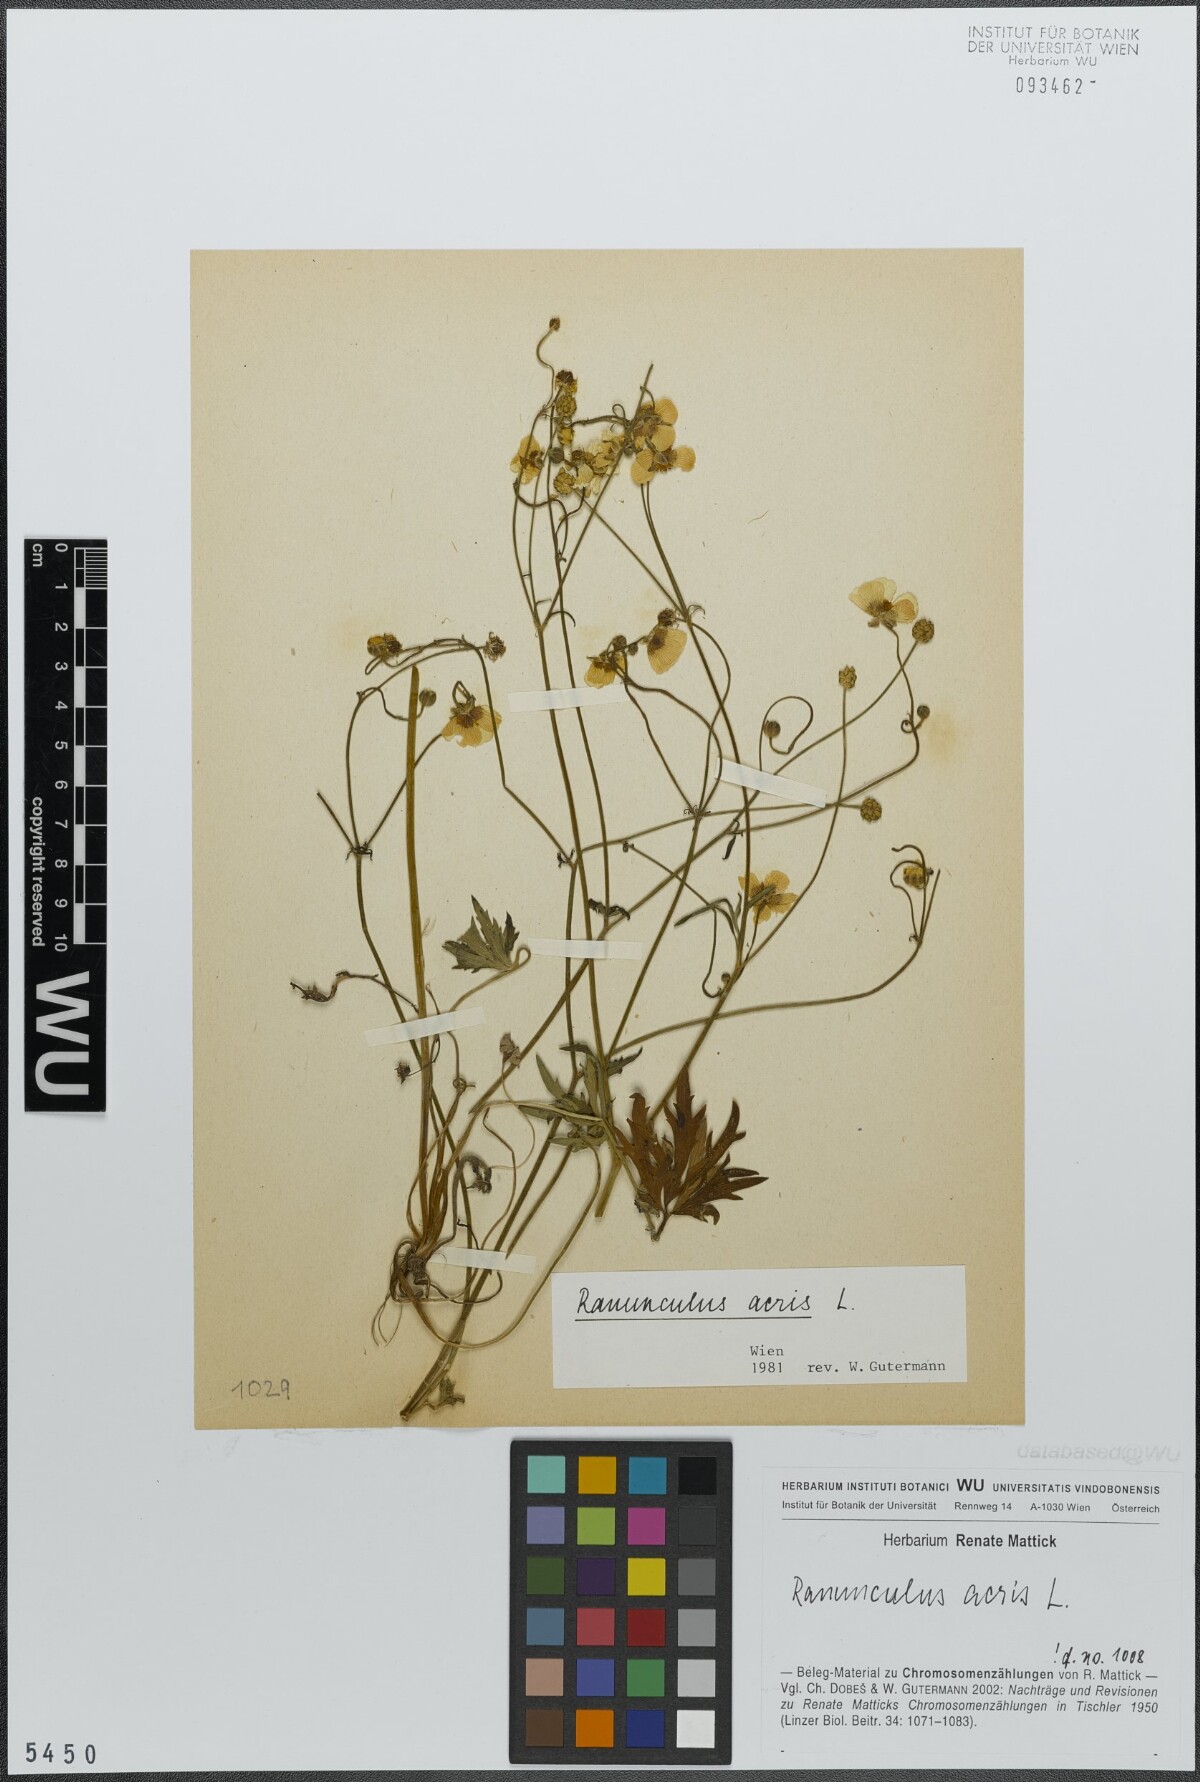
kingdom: Plantae
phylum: Tracheophyta
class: Magnoliopsida
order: Ranunculales
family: Ranunculaceae
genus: Ranunculus
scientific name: Ranunculus acris
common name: Meadow buttercup
